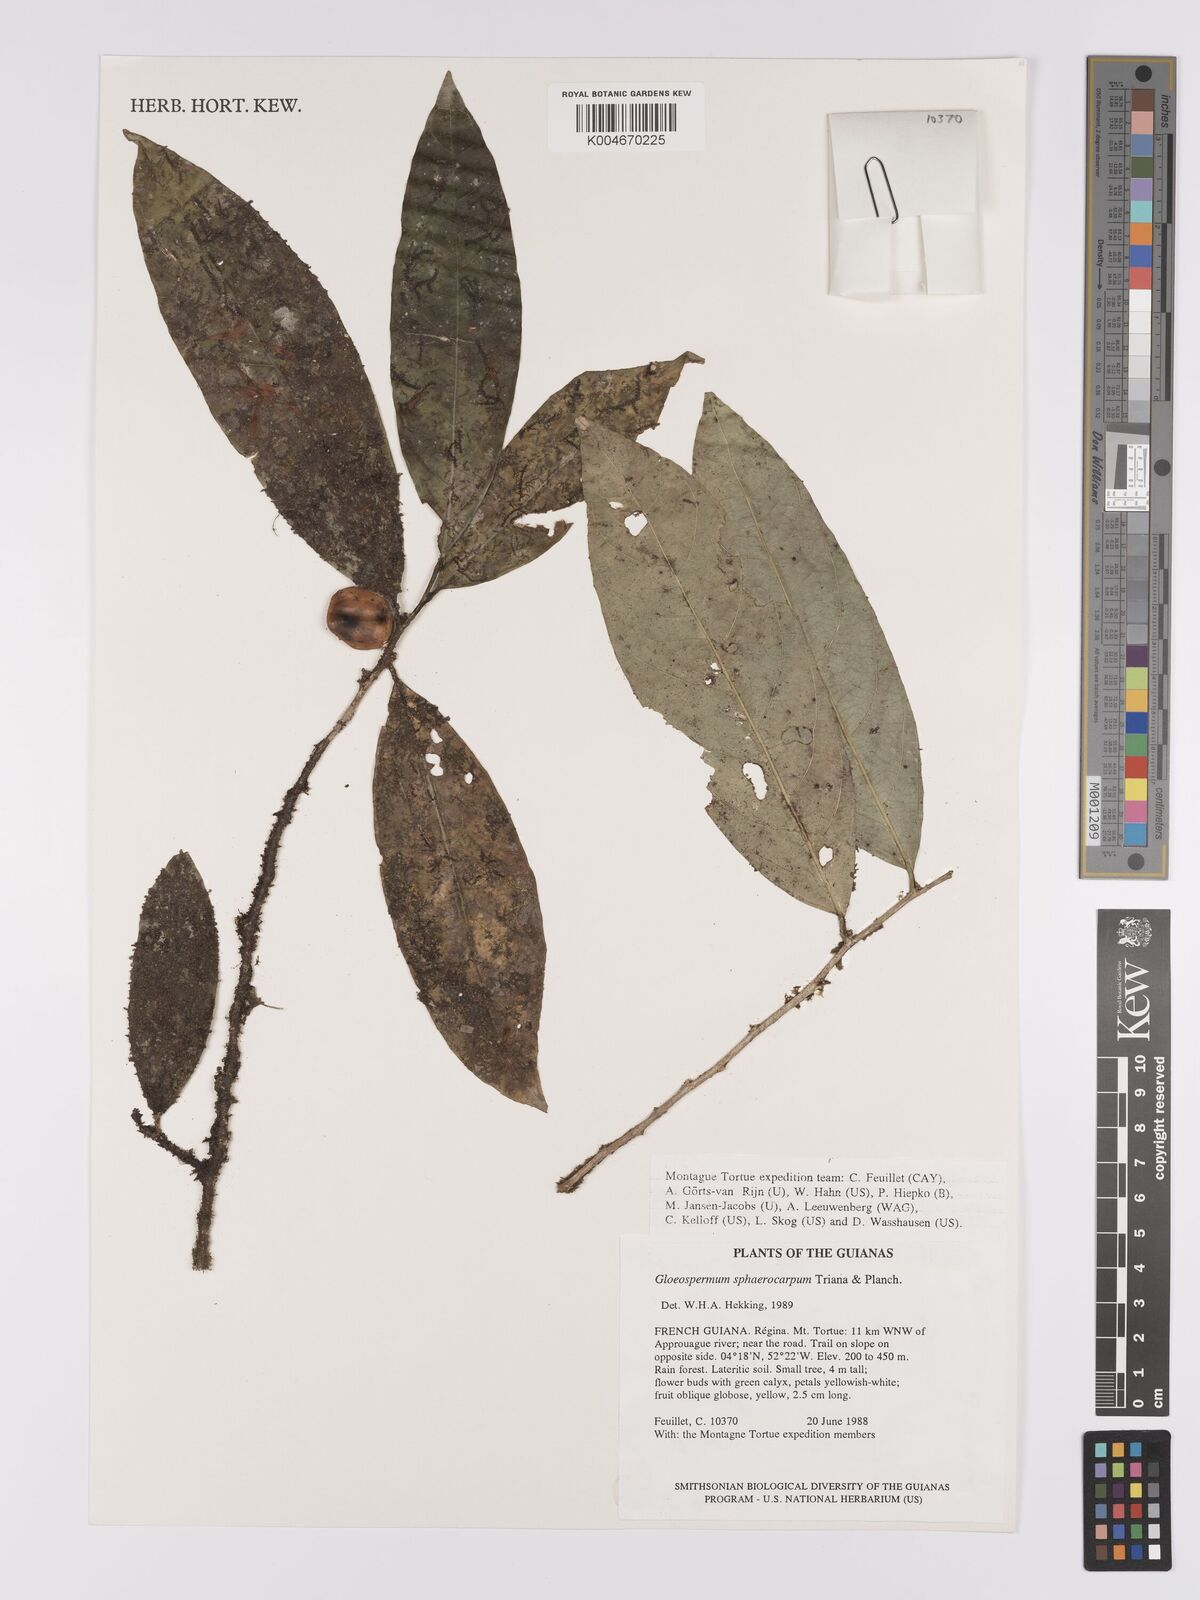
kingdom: Plantae
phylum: Tracheophyta
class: Magnoliopsida
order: Malpighiales
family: Violaceae
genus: Gloeospermum
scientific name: Gloeospermum sphaerocarpum
